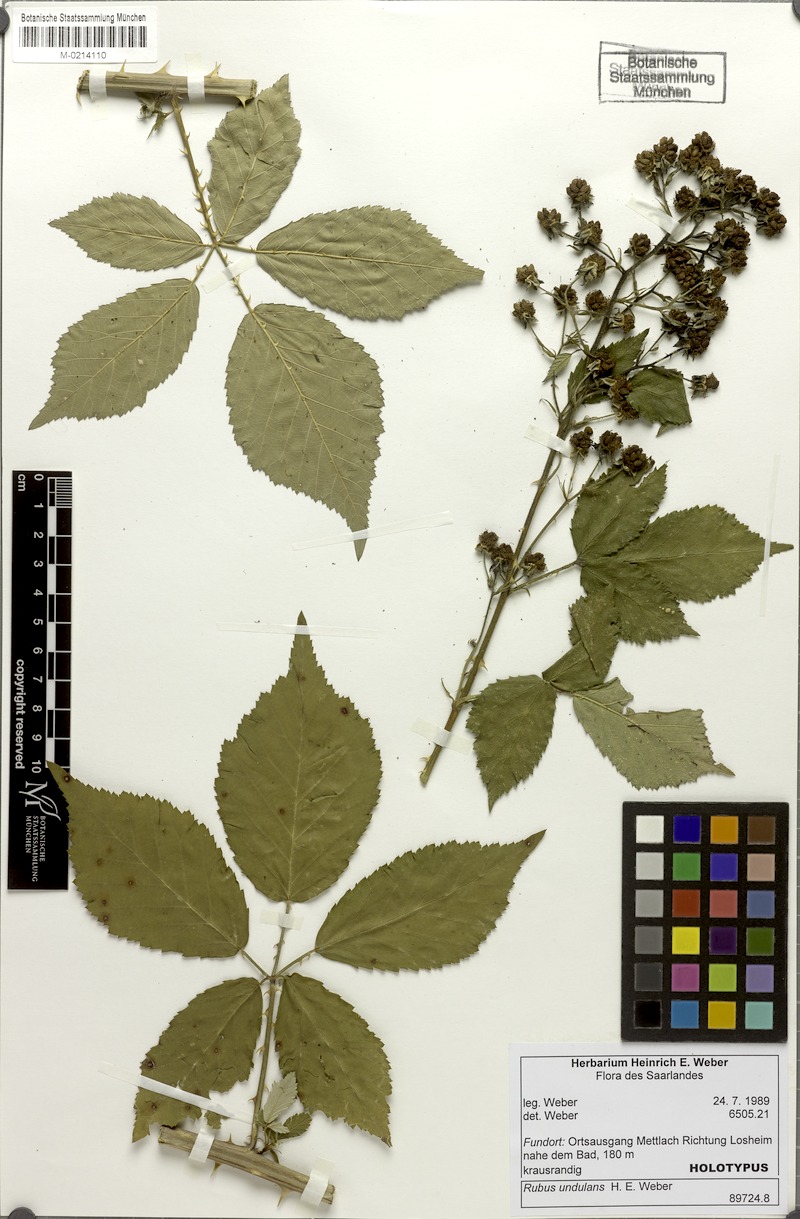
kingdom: Plantae
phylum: Tracheophyta
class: Magnoliopsida
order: Rosales
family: Rosaceae
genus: Rubus
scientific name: Rubus pericrispatus
